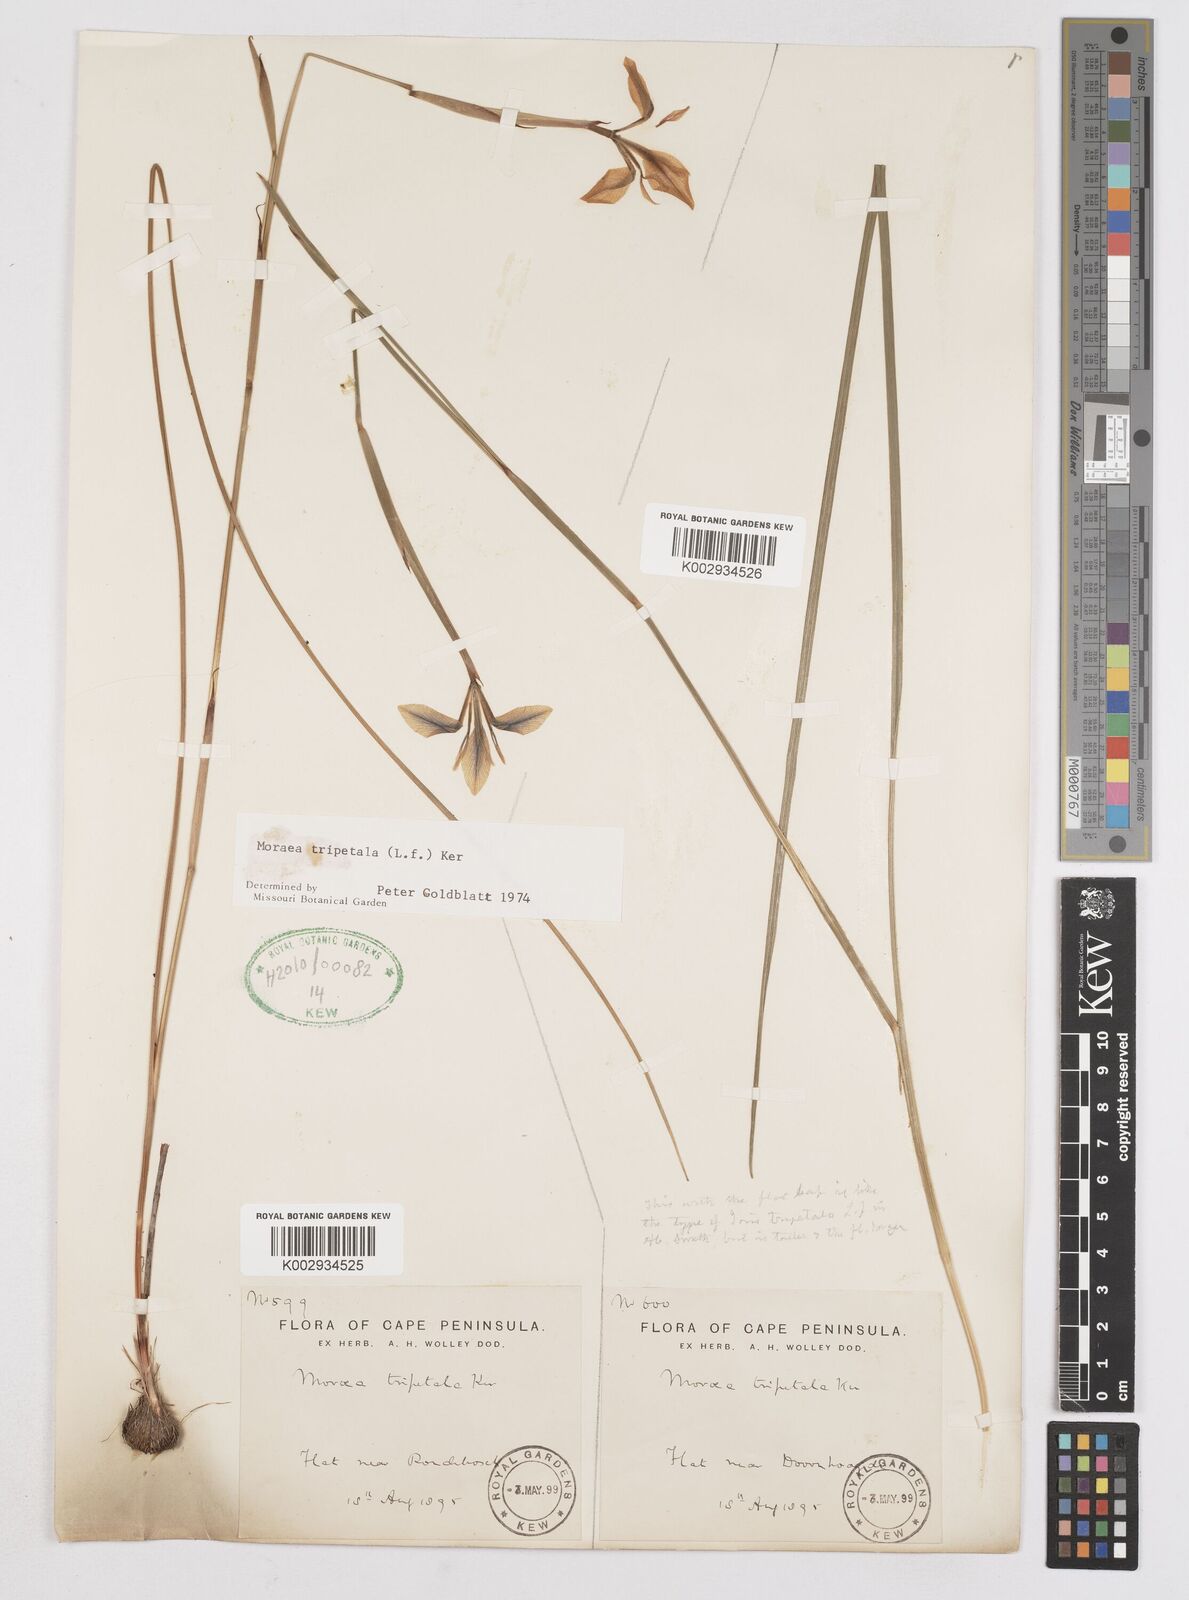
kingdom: Plantae
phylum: Tracheophyta
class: Liliopsida
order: Asparagales
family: Iridaceae
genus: Moraea
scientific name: Moraea tripetala
